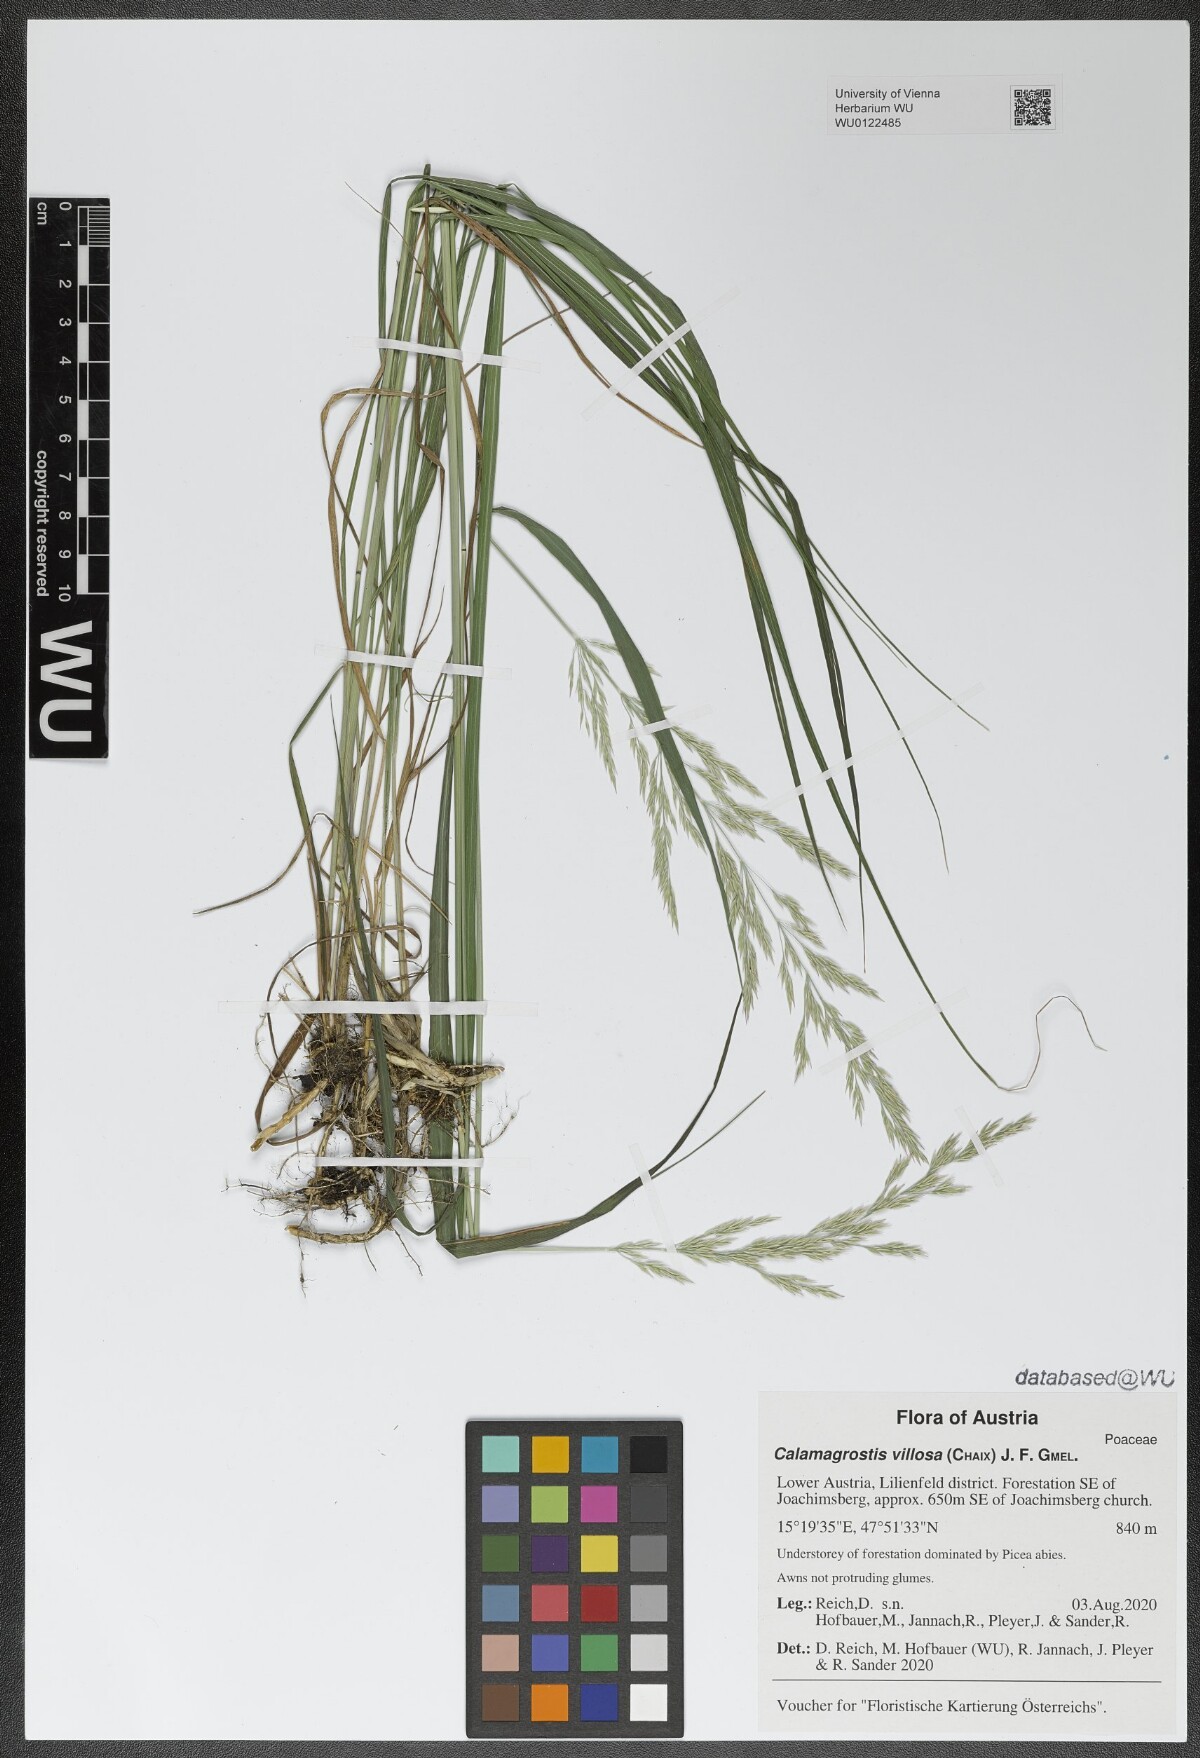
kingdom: Plantae
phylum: Tracheophyta
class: Liliopsida
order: Poales
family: Poaceae
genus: Calamagrostis
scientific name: Calamagrostis villosa
